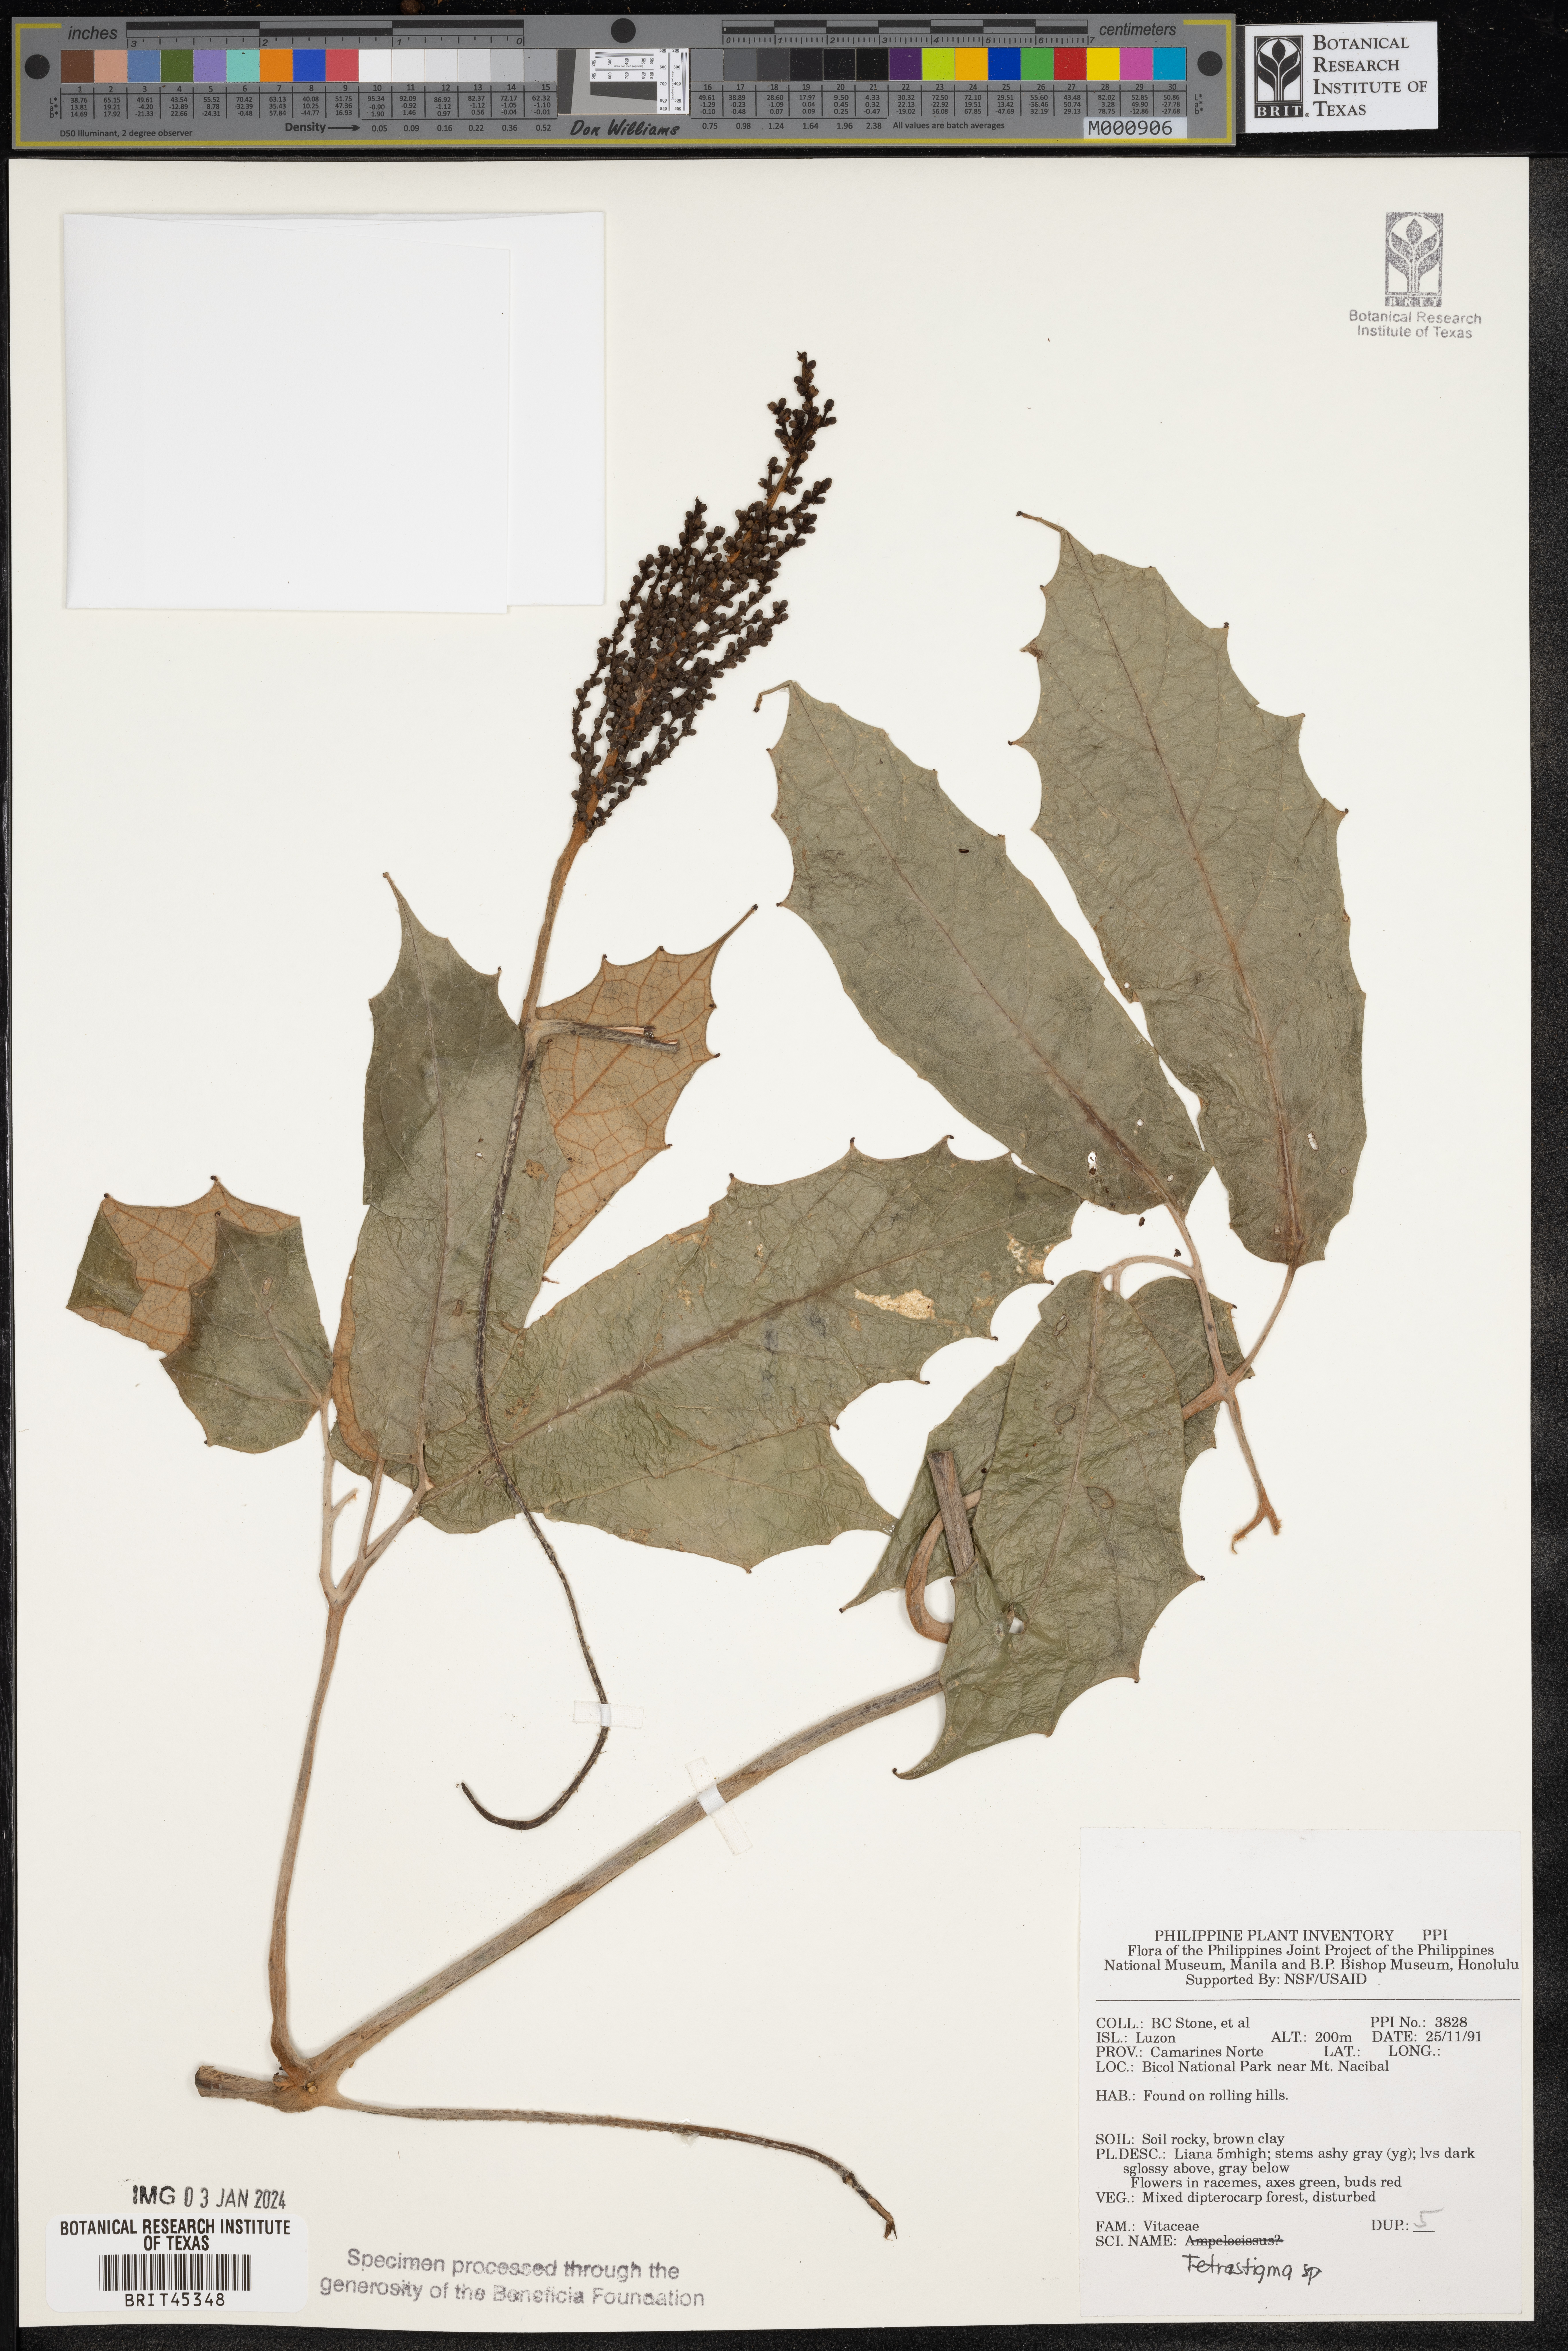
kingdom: Plantae
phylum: Tracheophyta
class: Magnoliopsida
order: Vitales
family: Vitaceae
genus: Tetrastigma
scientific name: Tetrastigma
